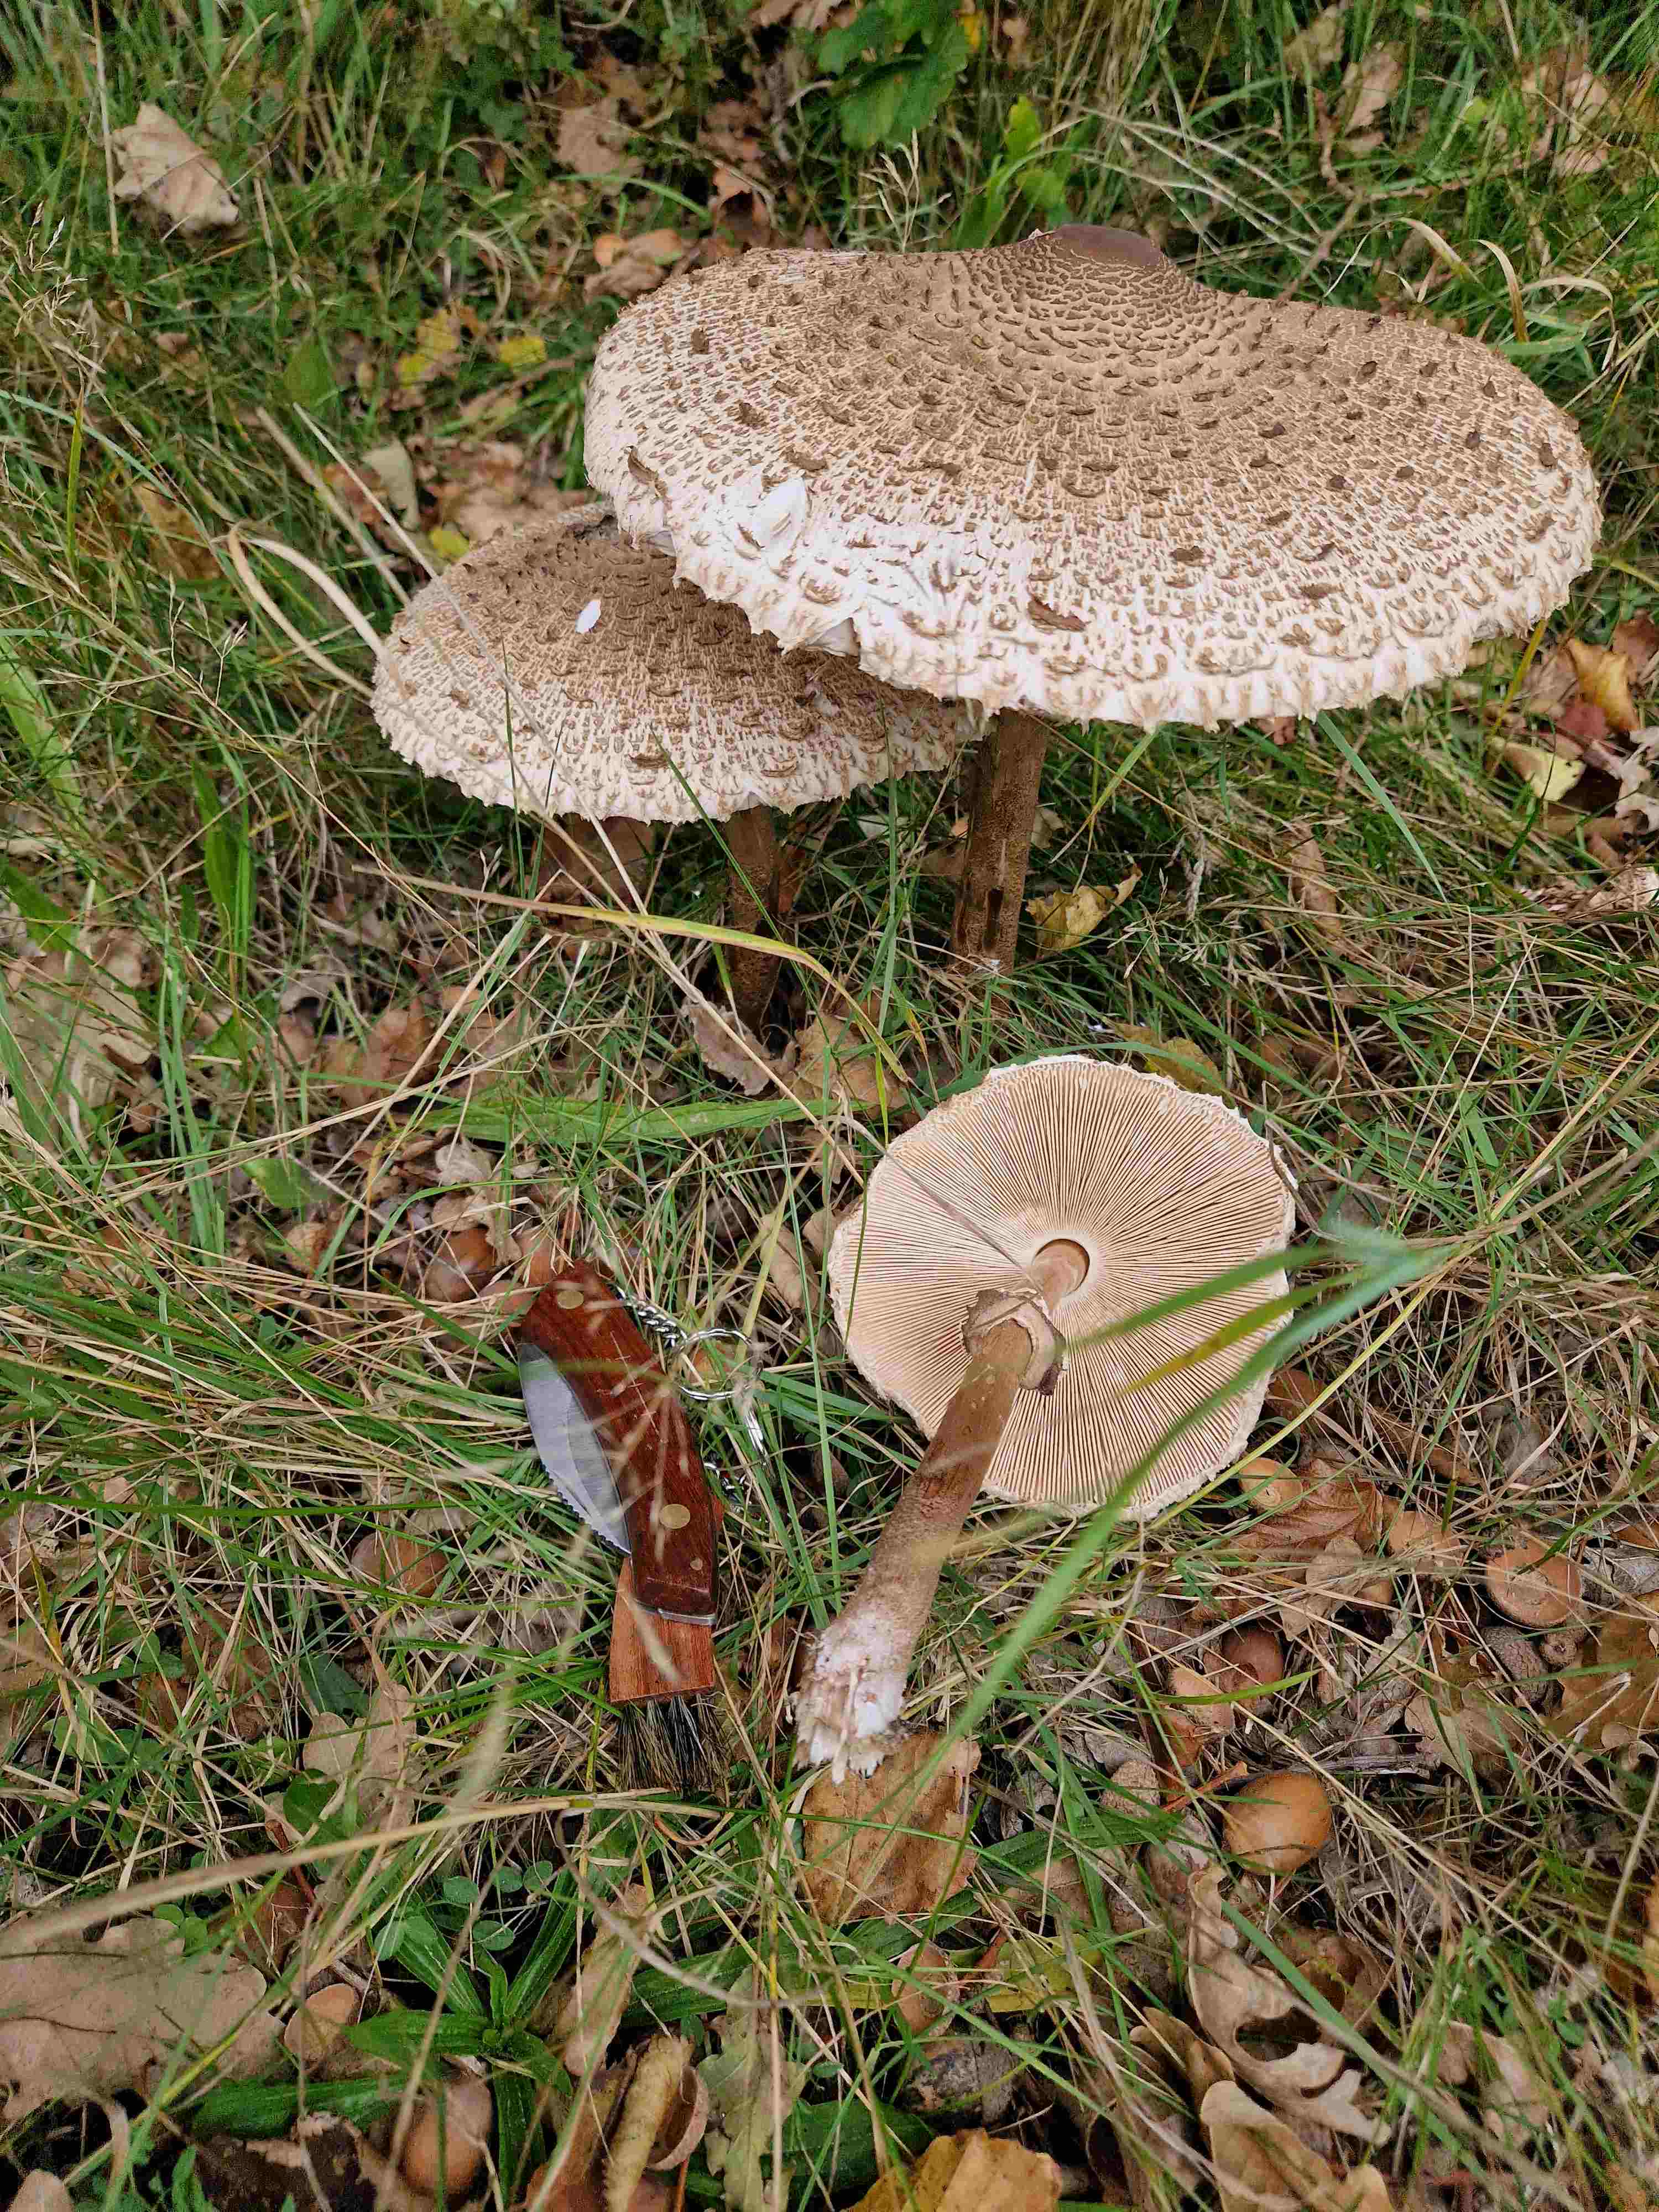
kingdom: Fungi
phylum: Basidiomycota
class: Agaricomycetes
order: Agaricales
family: Agaricaceae
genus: Macrolepiota
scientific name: Macrolepiota procera
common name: stor kæmpeparasolhat
